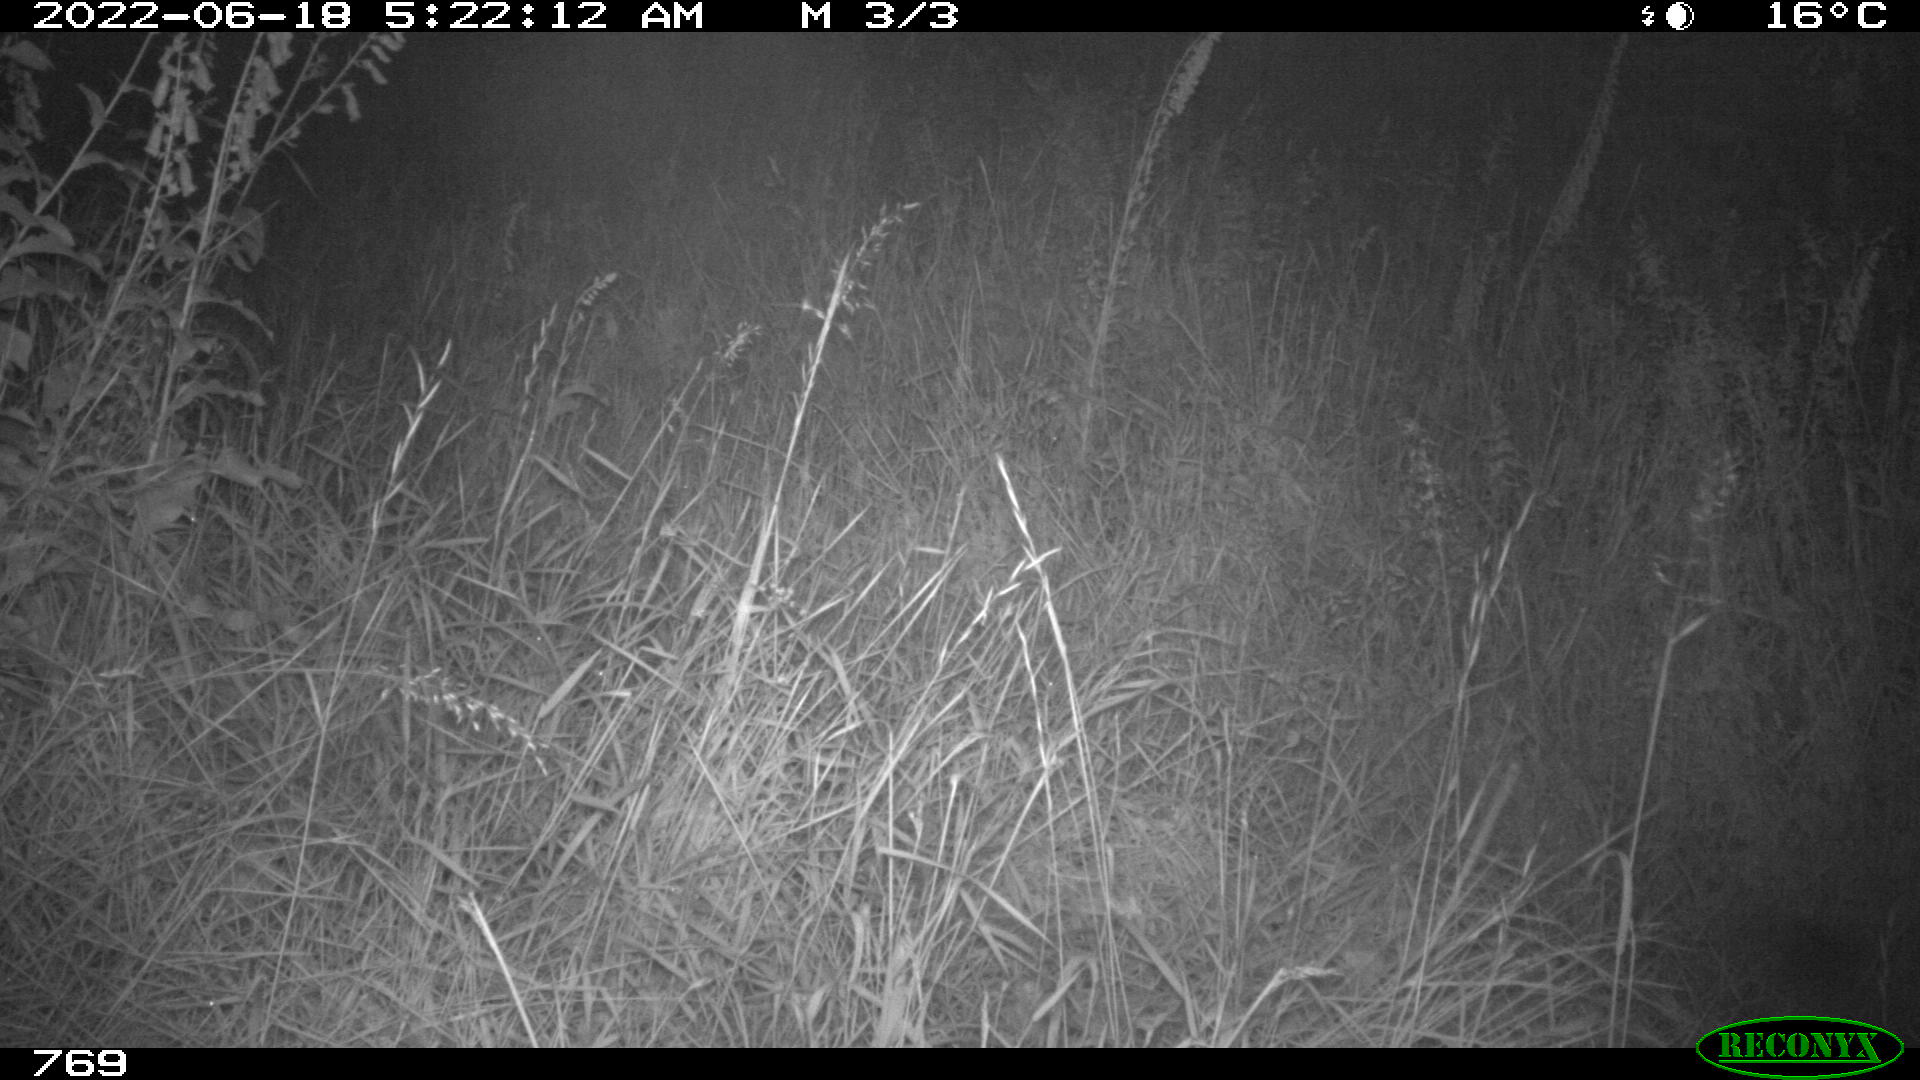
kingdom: Animalia
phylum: Chordata
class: Mammalia
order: Artiodactyla
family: Suidae
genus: Sus
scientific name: Sus scrofa
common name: Wild boar
